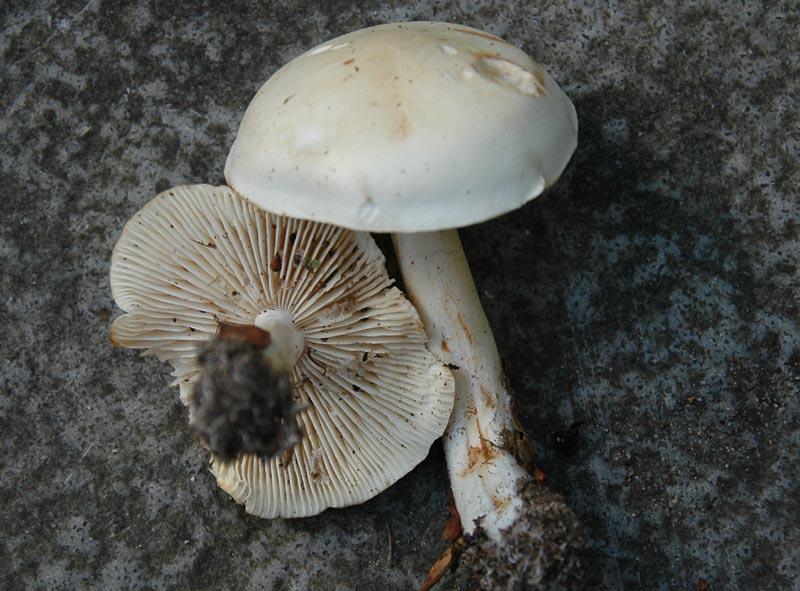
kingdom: Fungi
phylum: Basidiomycota
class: Agaricomycetes
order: Agaricales
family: Tricholomataceae
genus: Tricholoma
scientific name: Tricholoma album
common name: honning-ridderhat
